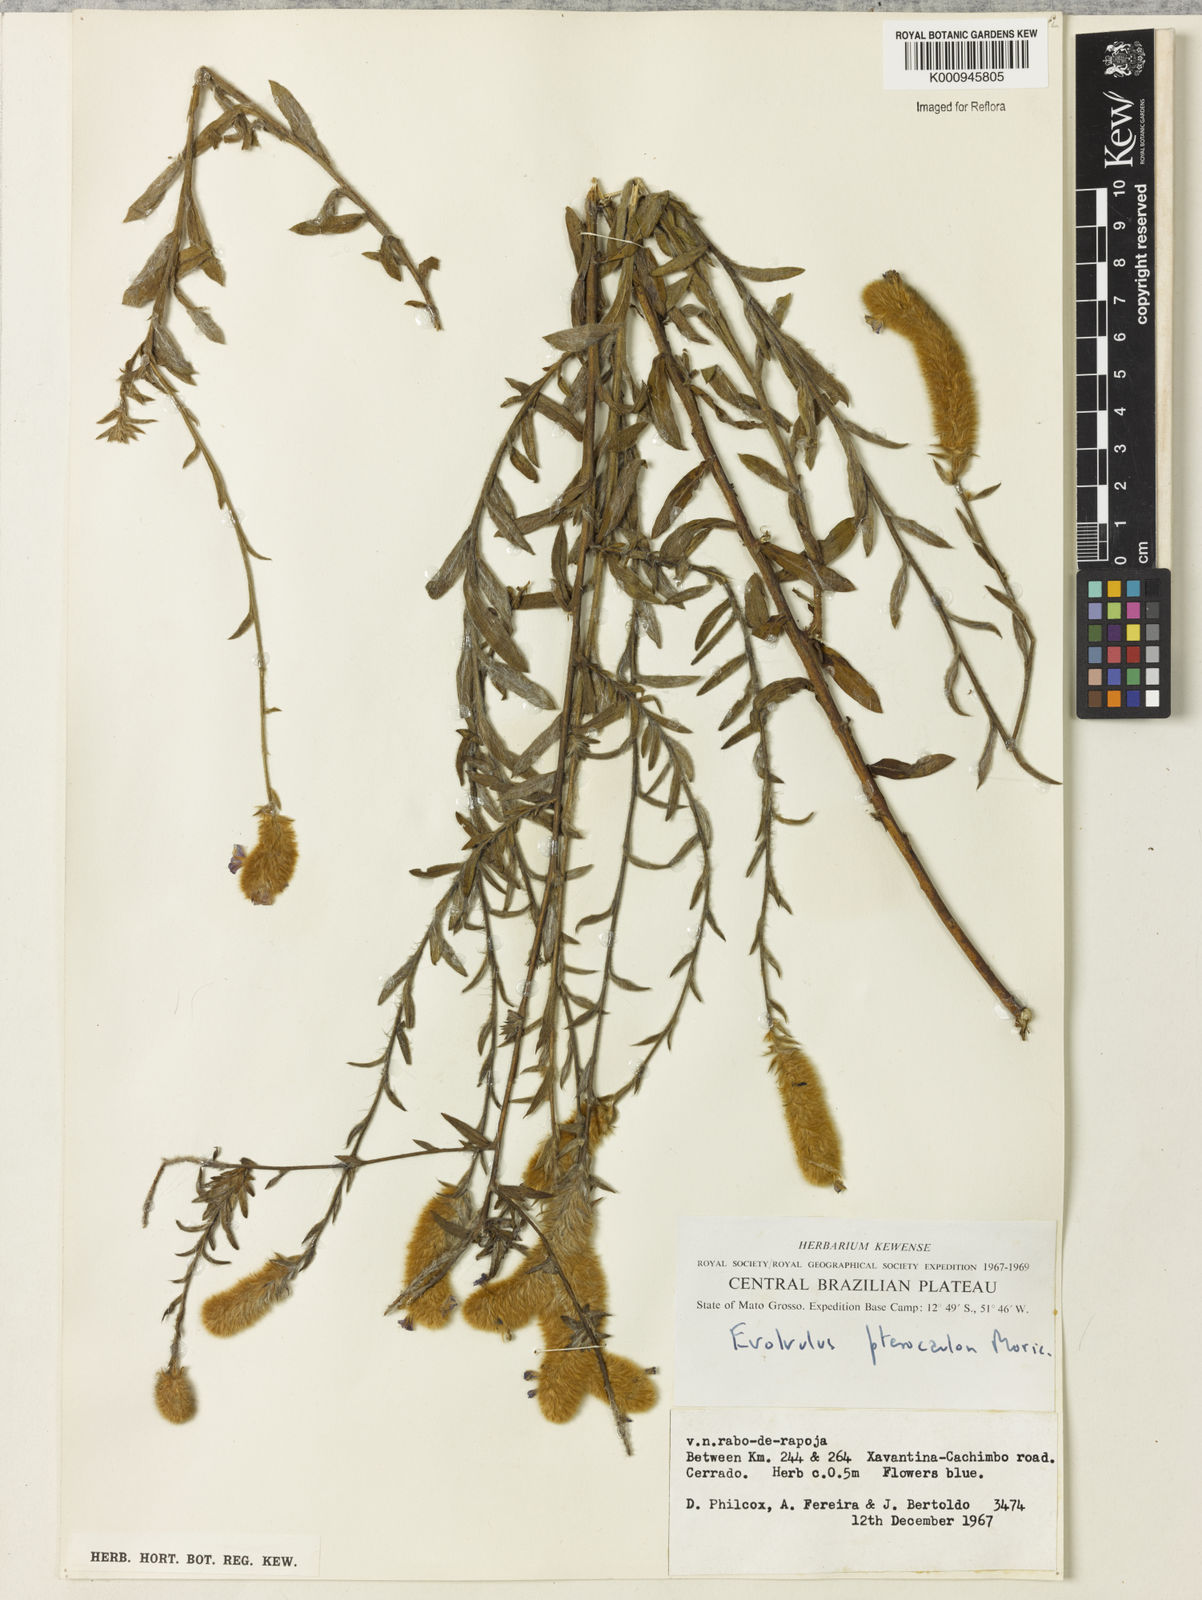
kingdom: Plantae
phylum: Tracheophyta
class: Magnoliopsida
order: Solanales
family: Convolvulaceae
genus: Evolvulus
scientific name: Evolvulus pterocaulon
